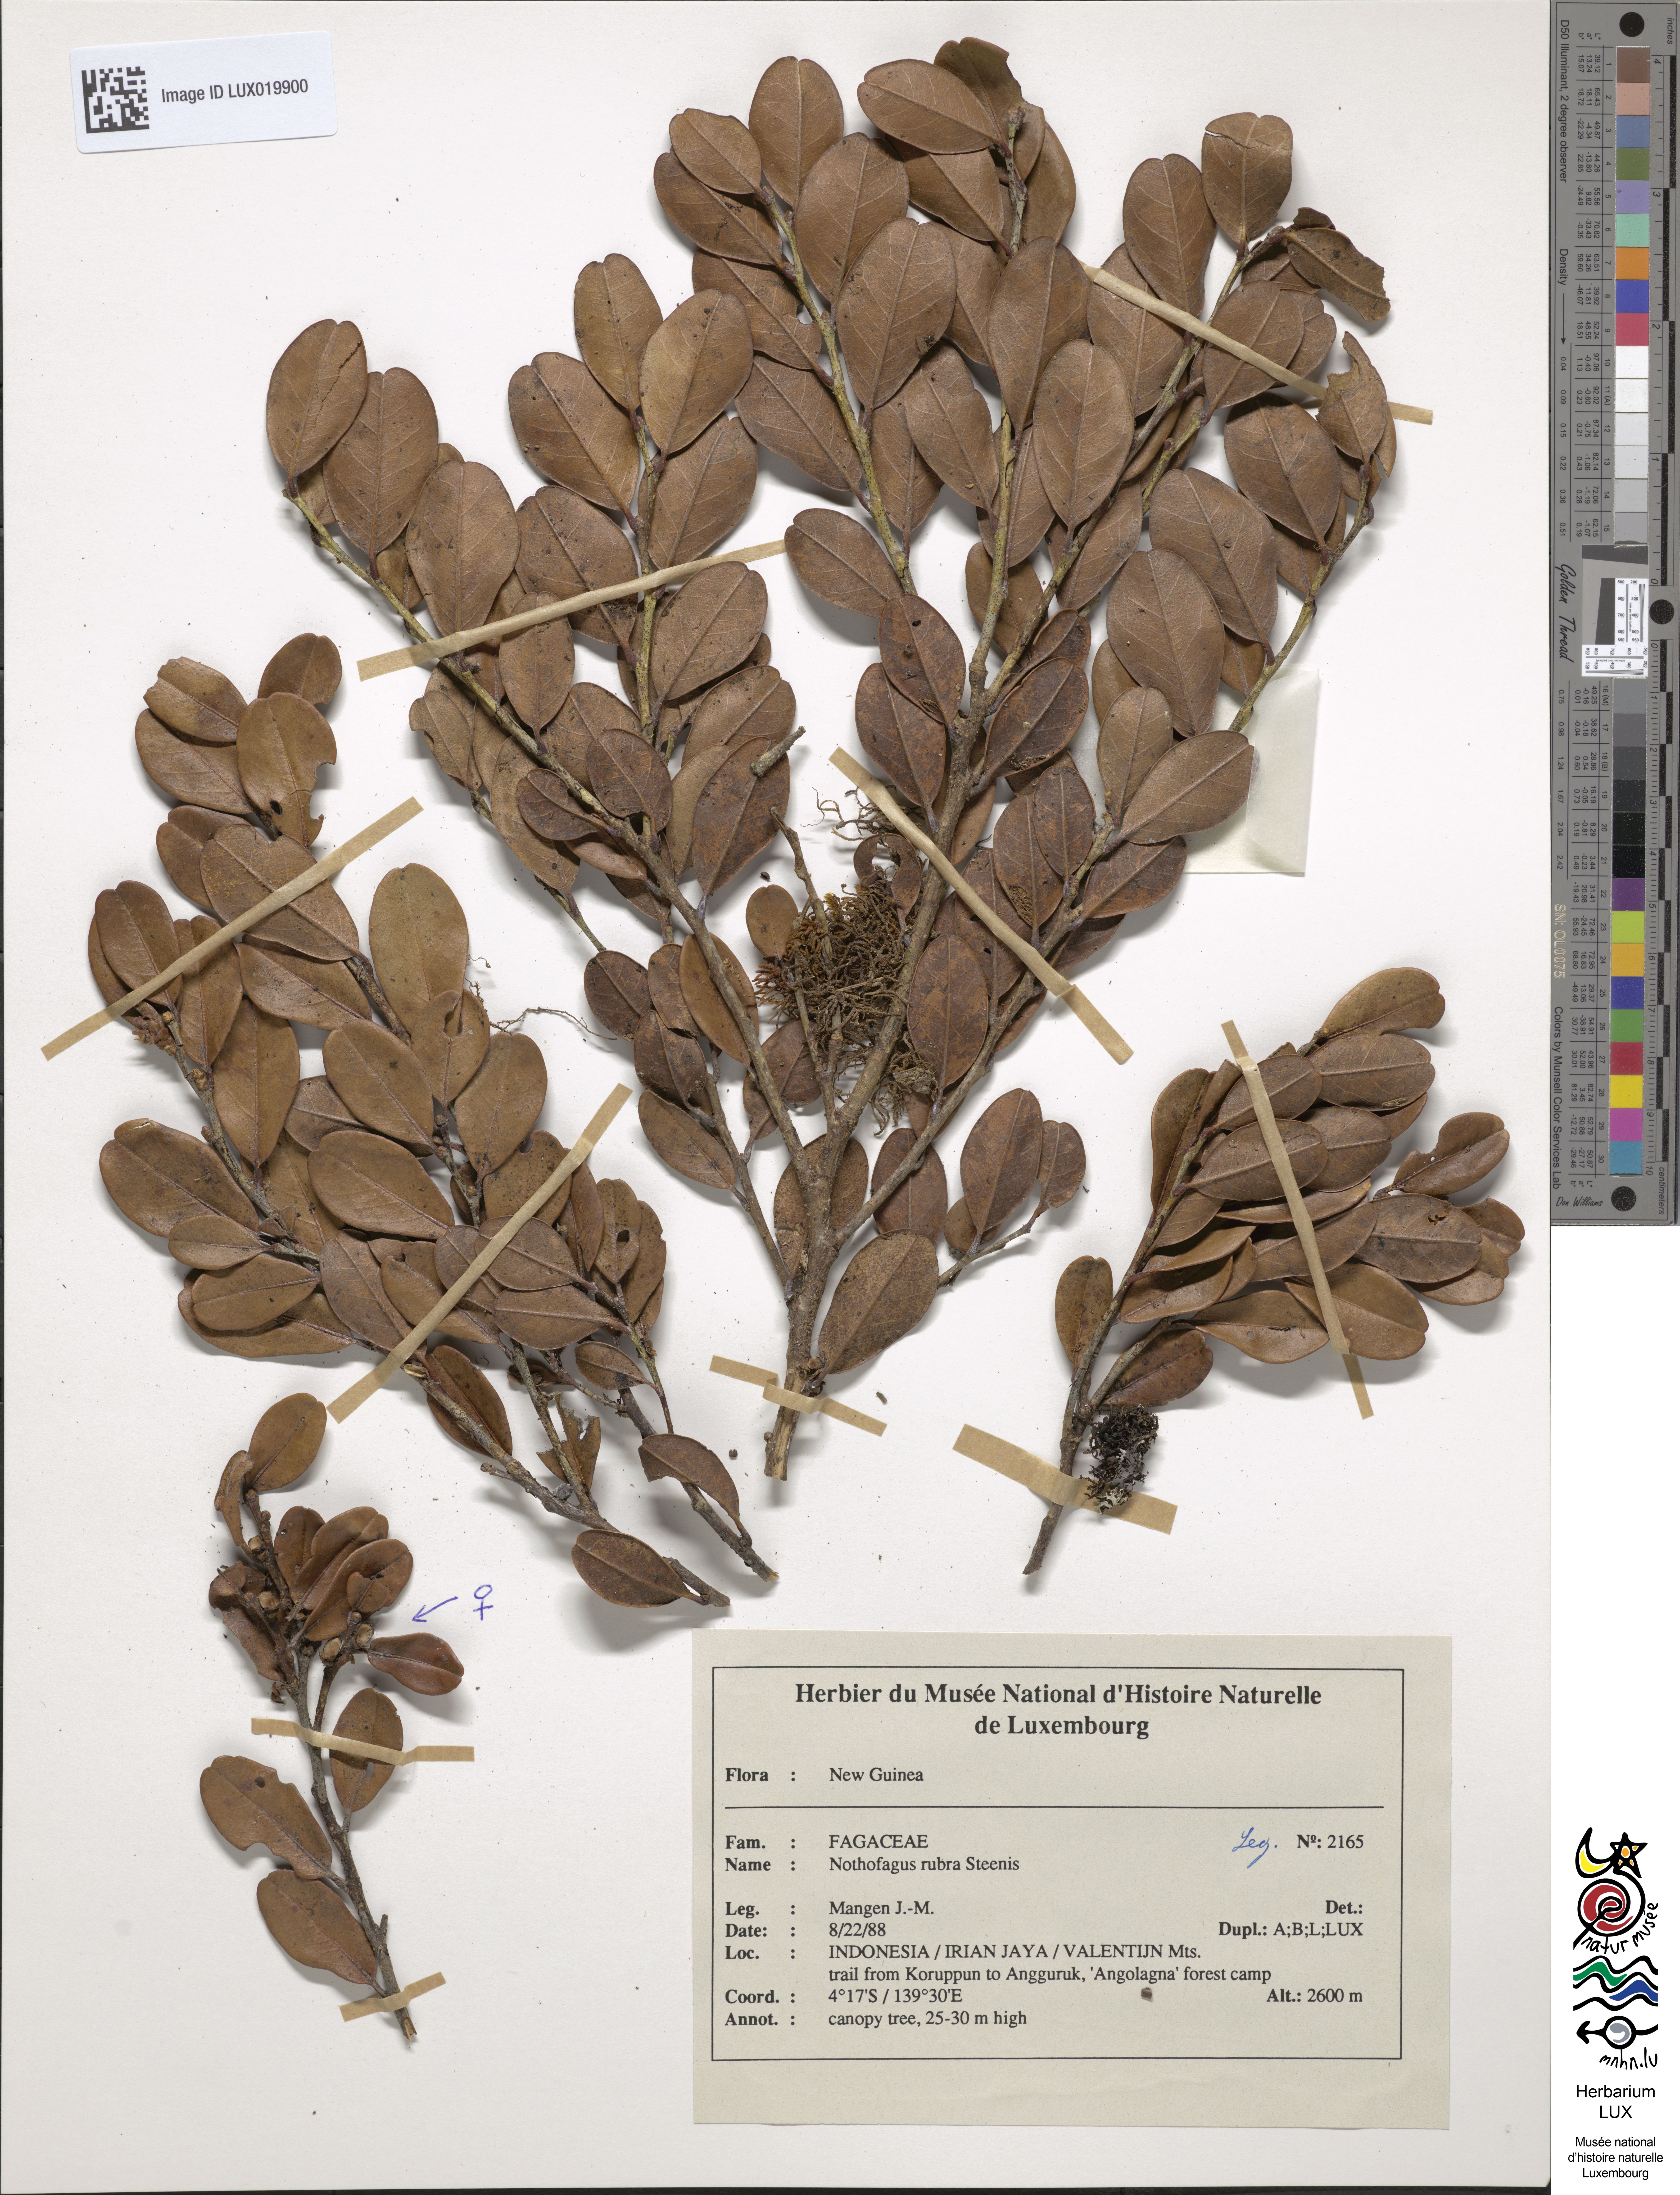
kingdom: Plantae
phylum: Tracheophyta
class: Magnoliopsida
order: Fagales
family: Nothofagaceae
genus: Nothofagus
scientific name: Nothofagus rubra
